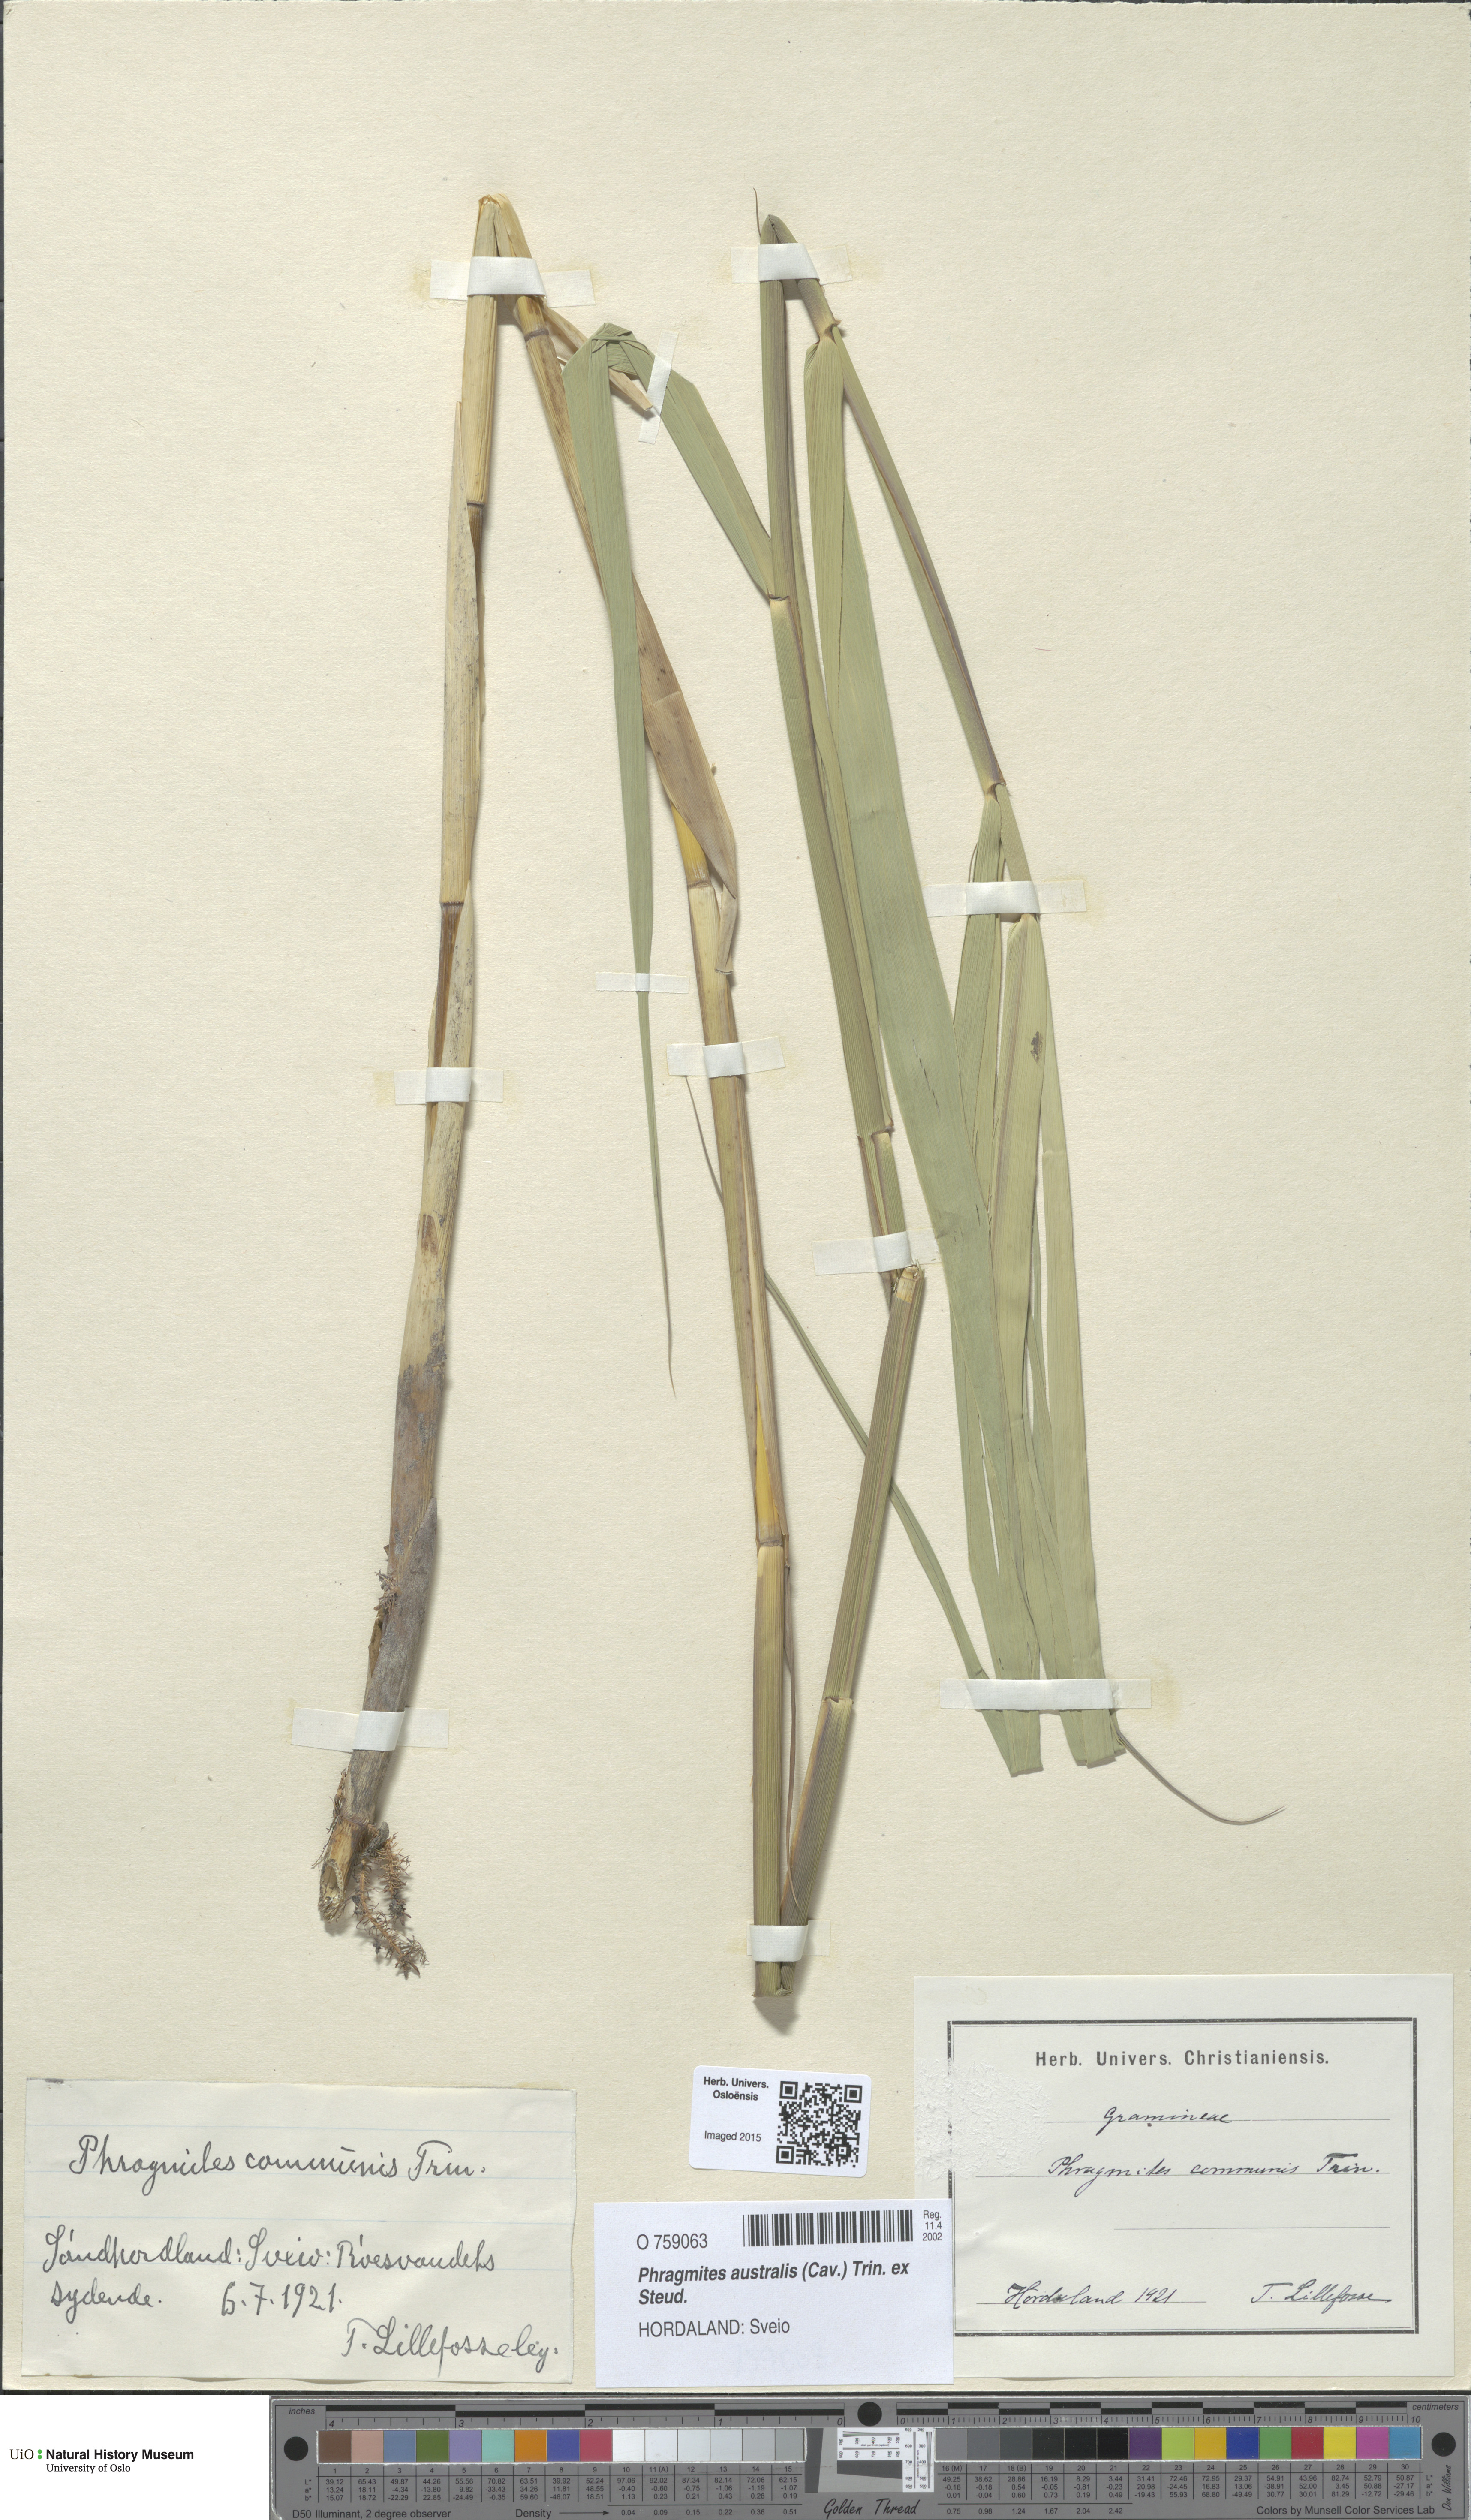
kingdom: Plantae
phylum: Tracheophyta
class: Liliopsida
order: Poales
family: Poaceae
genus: Phragmites
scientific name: Phragmites australis
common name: Common reed
